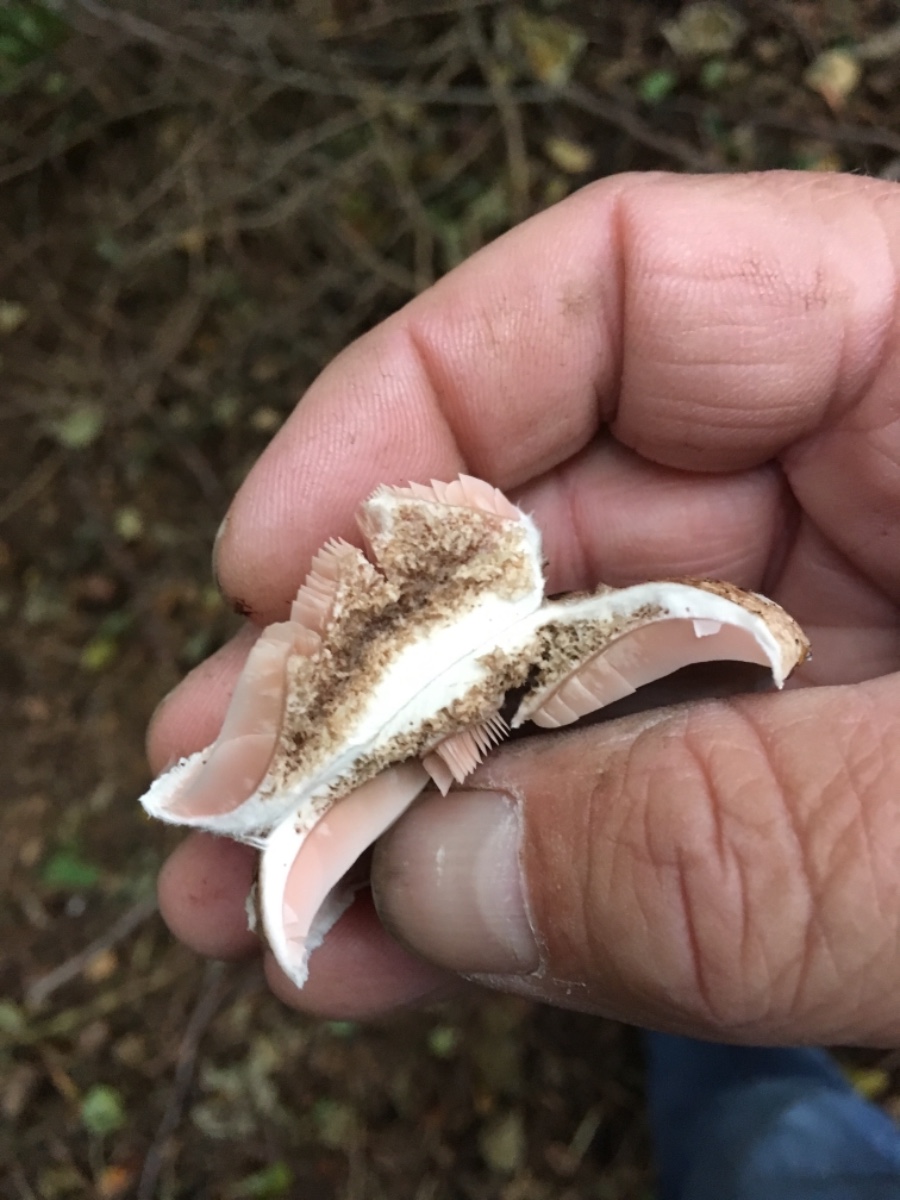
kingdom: Fungi
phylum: Basidiomycota
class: Agaricomycetes
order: Agaricales
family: Agaricaceae
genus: Agaricus
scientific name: Agaricus impudicus
